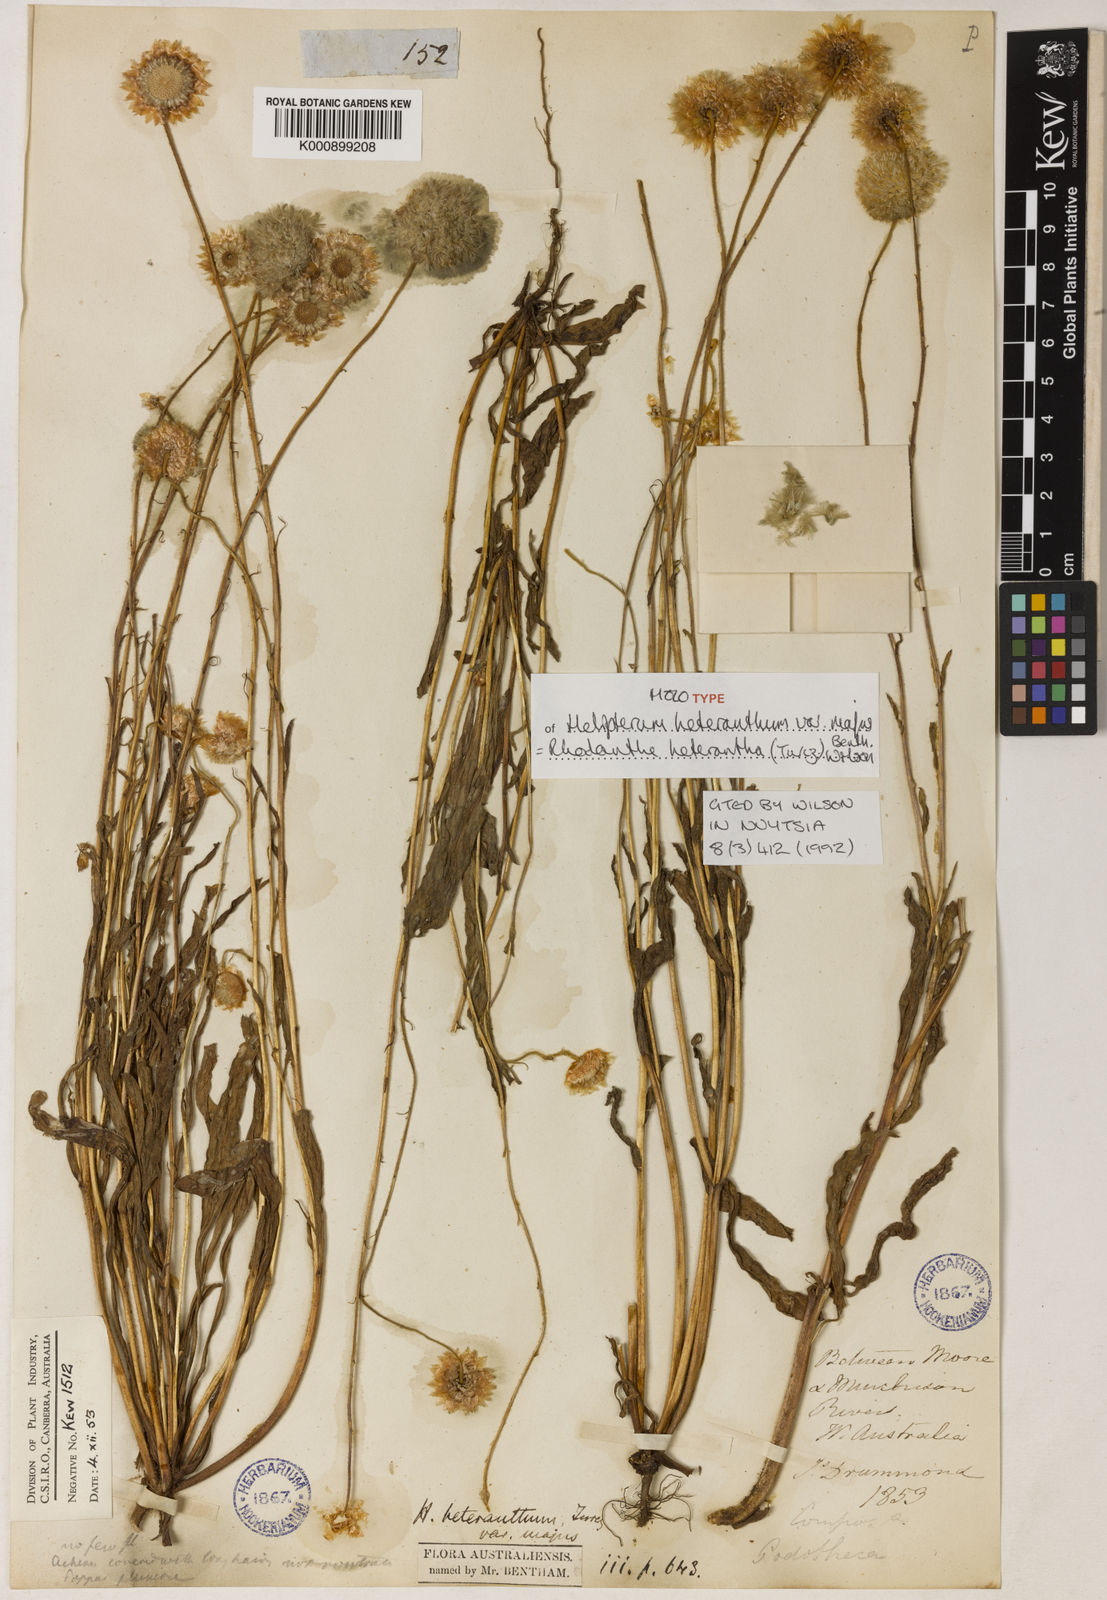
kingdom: Plantae
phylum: Tracheophyta
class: Magnoliopsida
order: Asterales
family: Asteraceae
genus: Rhodanthe
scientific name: Rhodanthe heterantha
